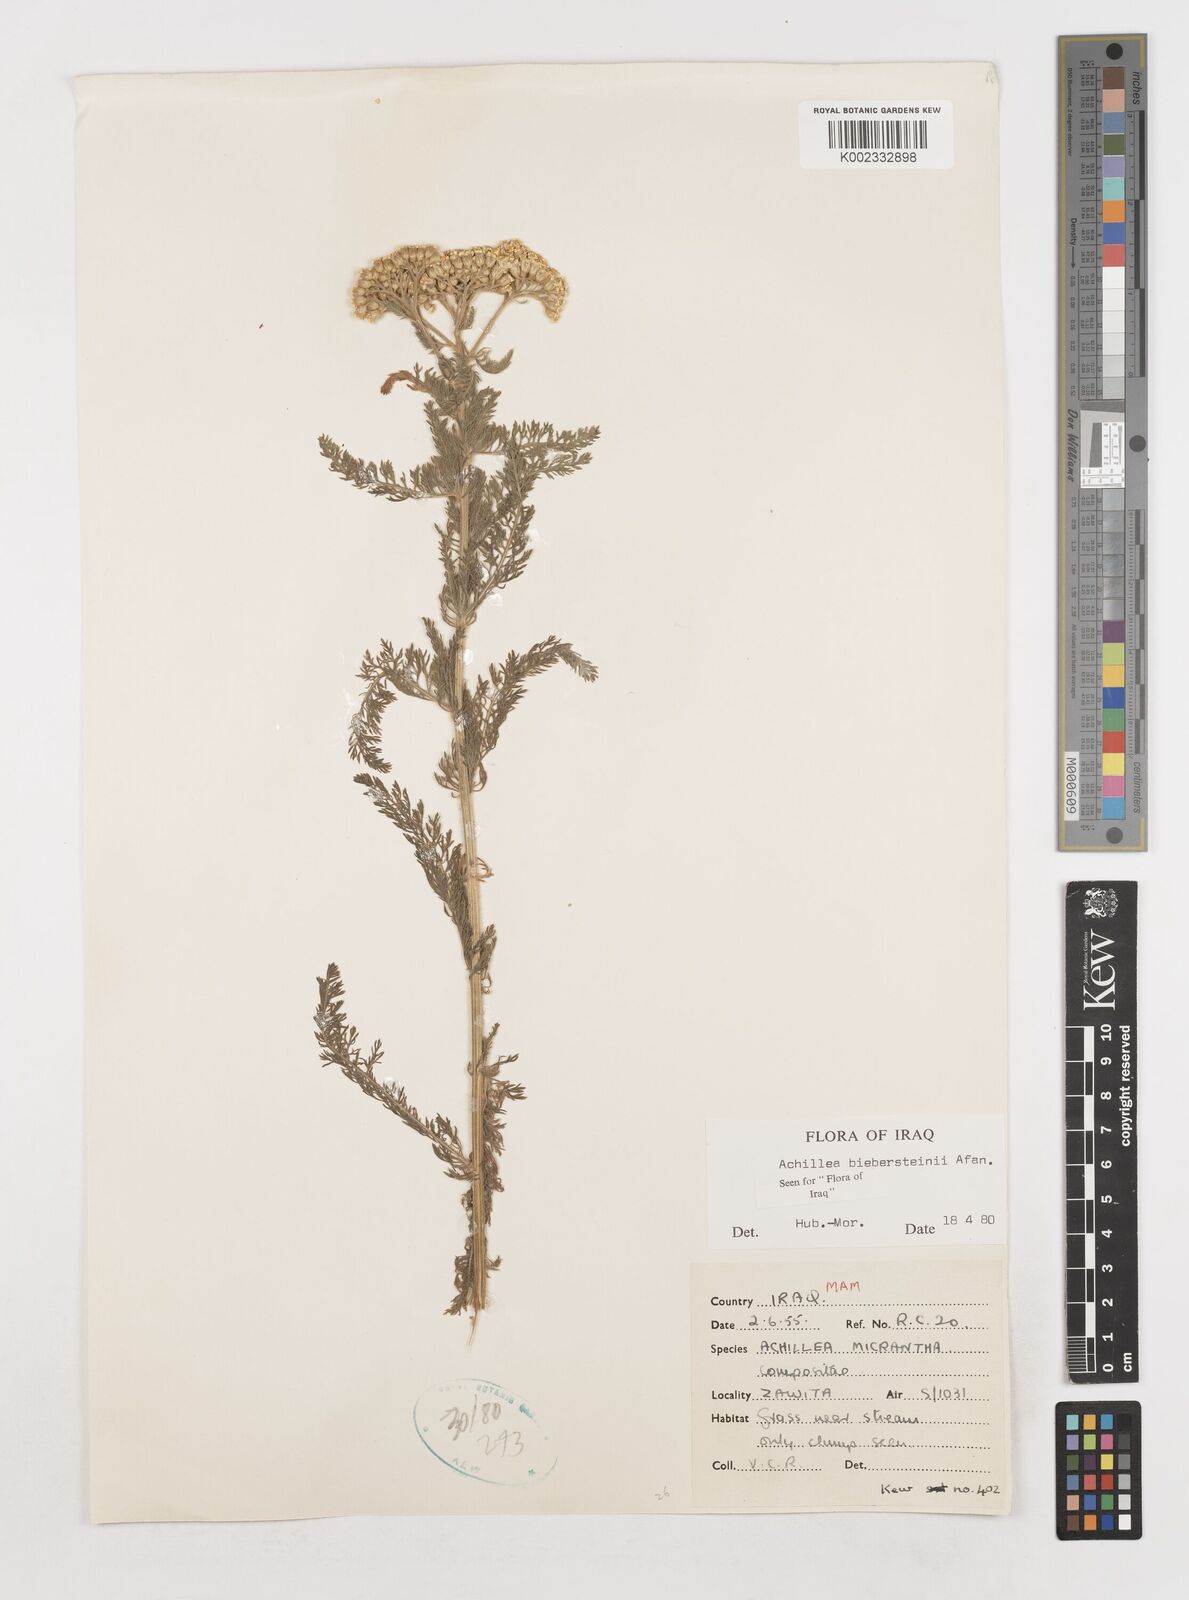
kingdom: Plantae
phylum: Tracheophyta
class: Magnoliopsida
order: Asterales
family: Asteraceae
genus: Achillea
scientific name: Achillea arabica
